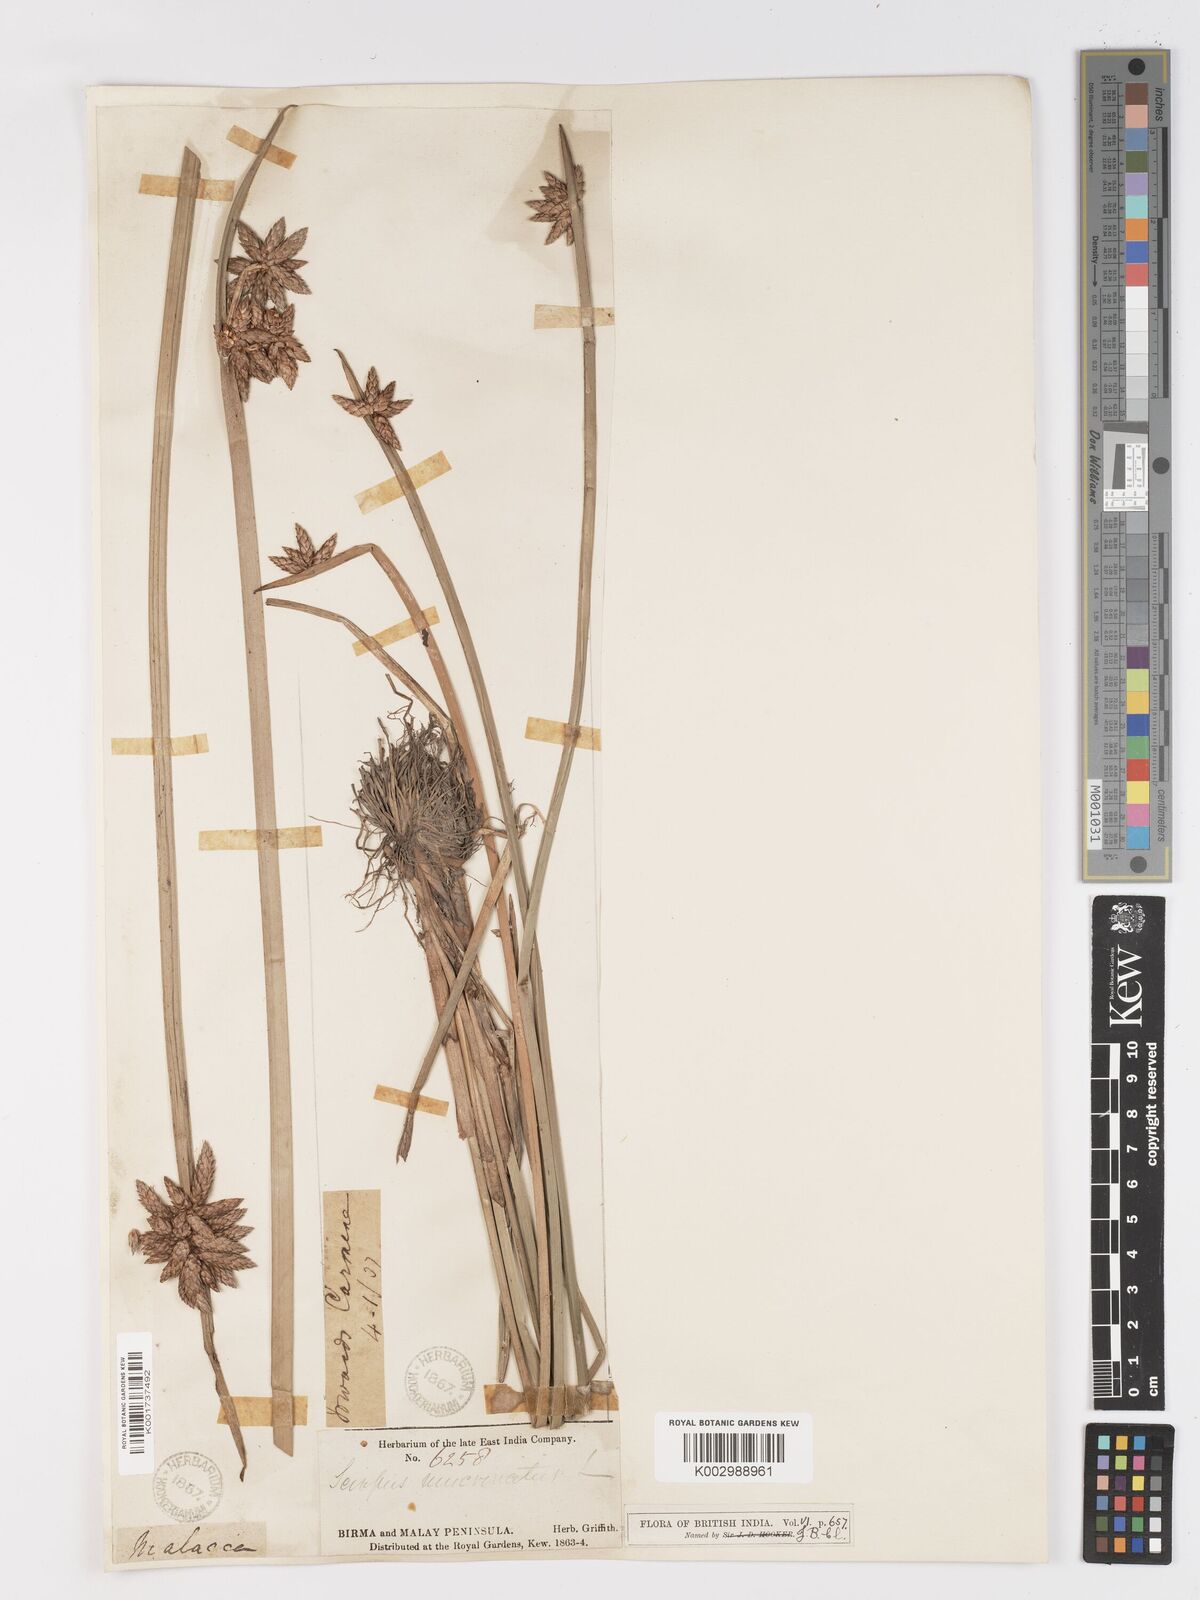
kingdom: Plantae
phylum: Tracheophyta
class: Liliopsida
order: Poales
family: Cyperaceae
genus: Schoenoplectiella
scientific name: Schoenoplectiella mucronata
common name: Bog bulrush
